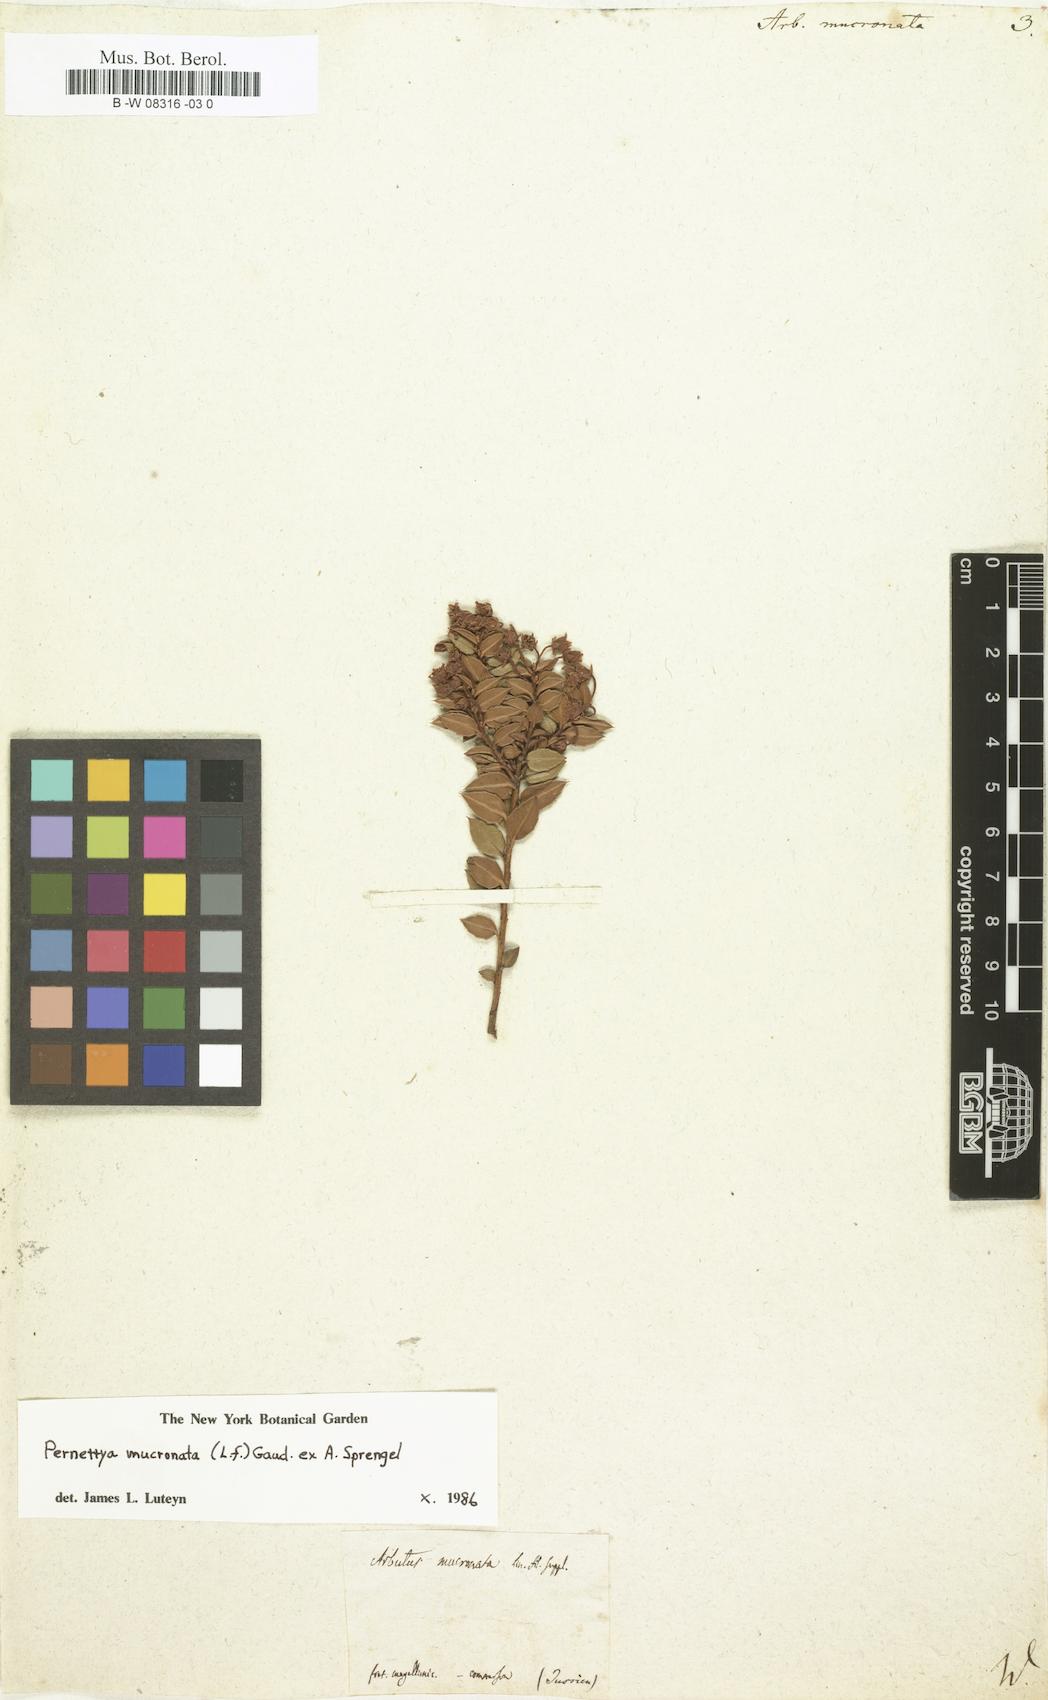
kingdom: Plantae
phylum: Tracheophyta
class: Magnoliopsida
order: Ericales
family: Ericaceae
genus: Gaultheria
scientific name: Gaultheria mucronata
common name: Prickly heath
